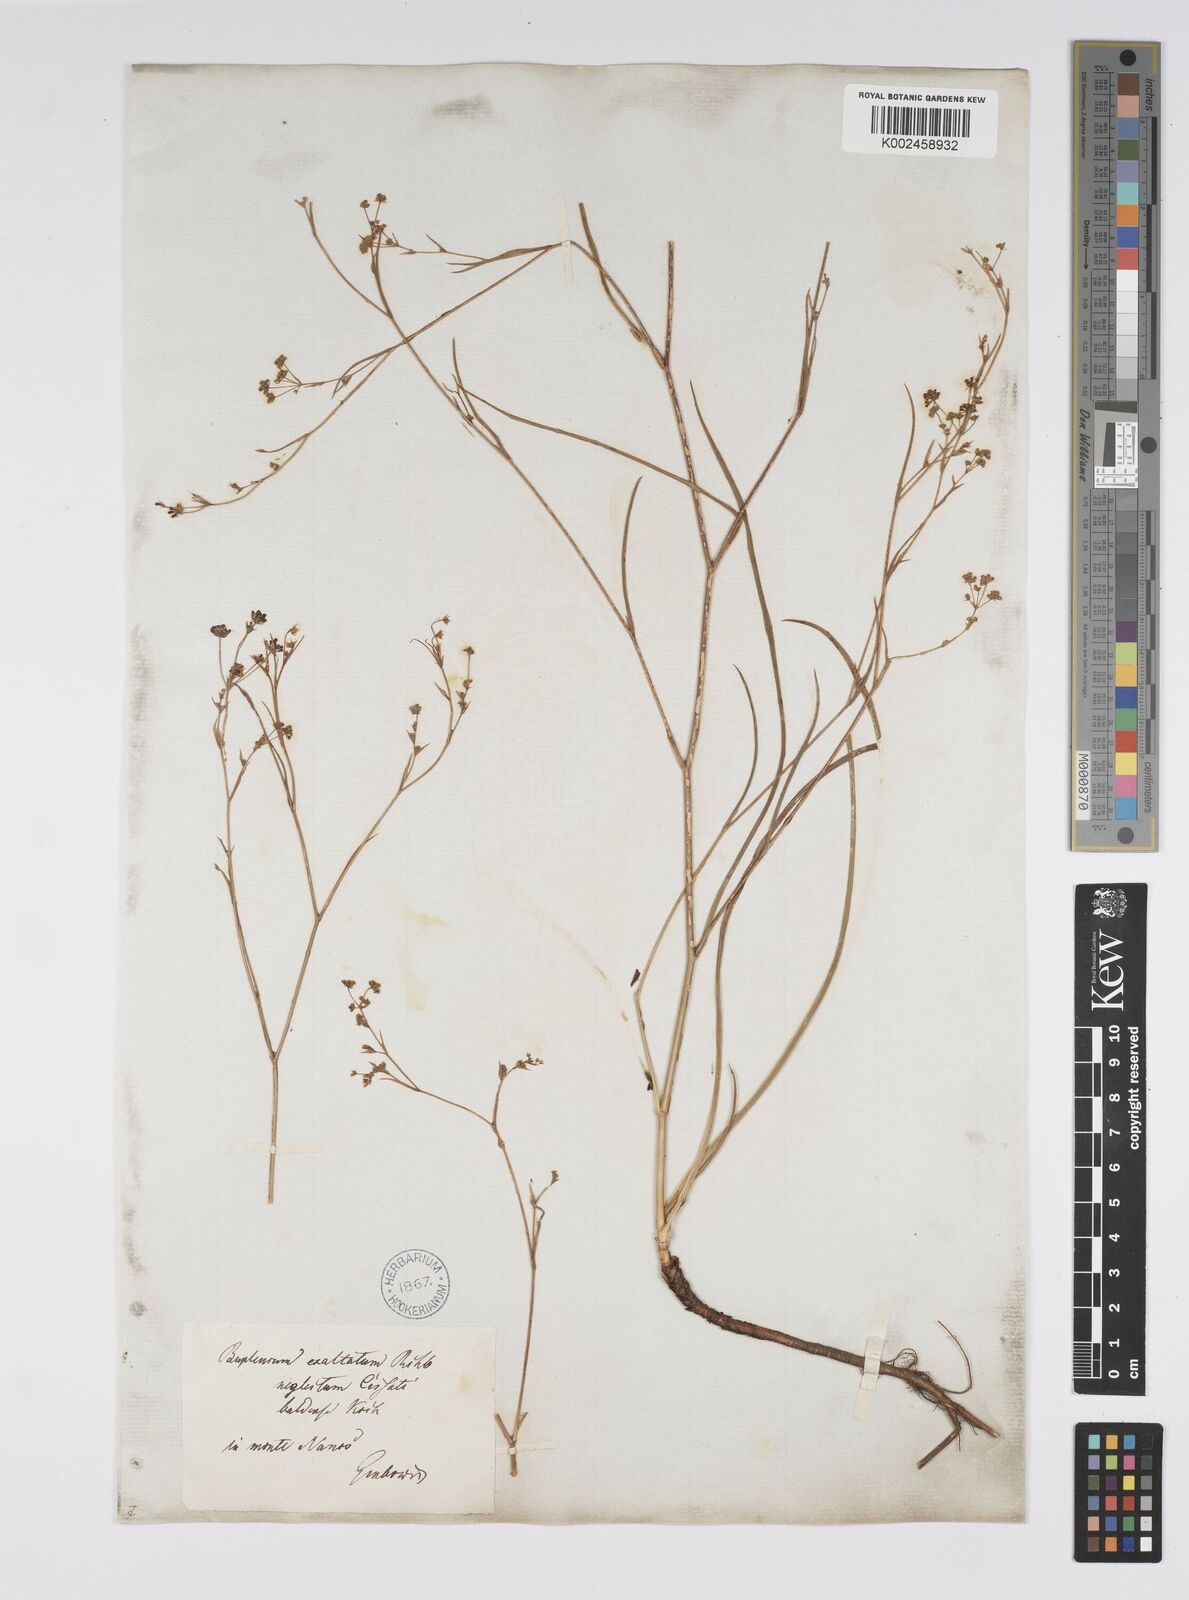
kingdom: Plantae
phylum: Tracheophyta
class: Magnoliopsida
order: Apiales
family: Apiaceae
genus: Bupleurum
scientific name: Bupleurum falcatum
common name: Sickle-leaved hare's-ear
